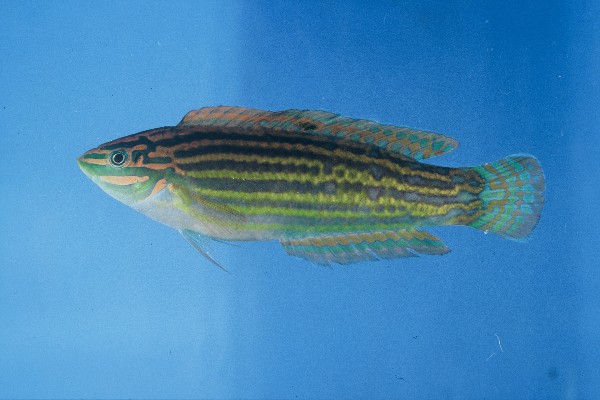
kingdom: Animalia
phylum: Chordata
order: Perciformes
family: Labridae
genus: Halichoeres
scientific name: Halichoeres cosmetus
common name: Adorned wrasse
